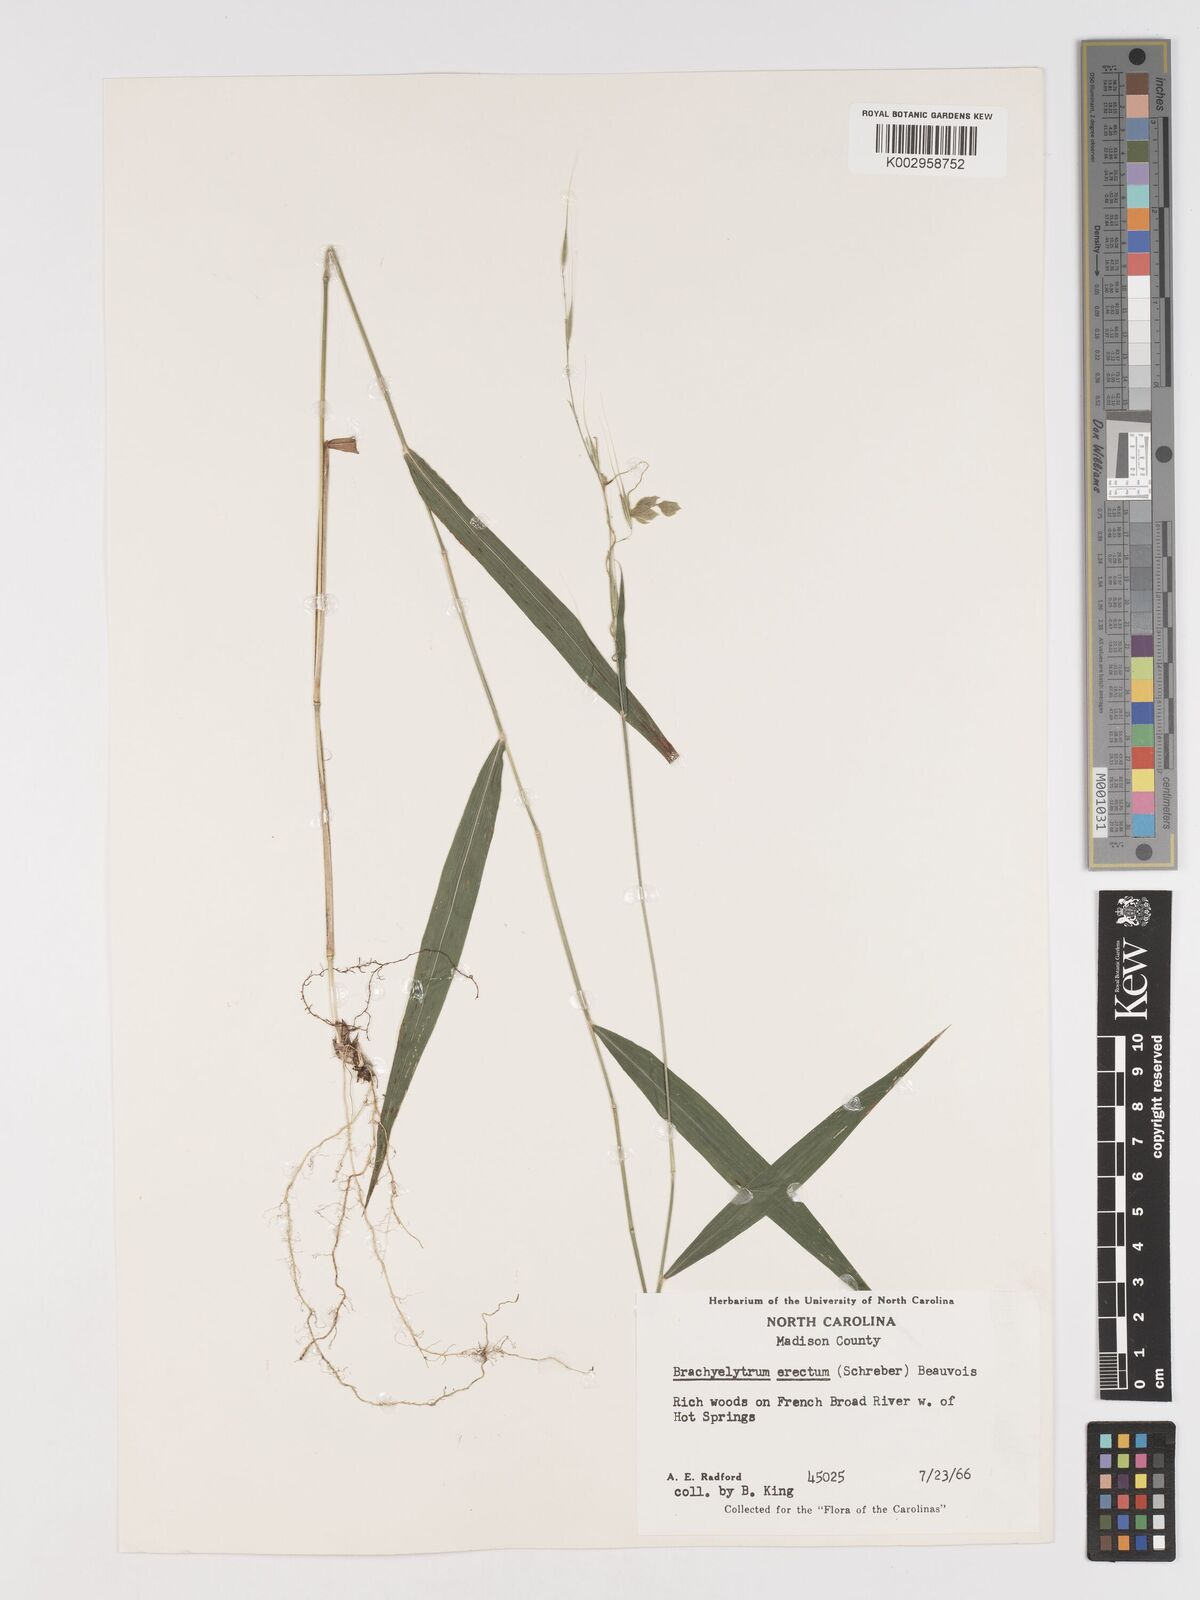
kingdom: Plantae
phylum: Tracheophyta
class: Liliopsida
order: Poales
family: Poaceae
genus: Brachyelytrum
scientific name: Brachyelytrum erectum
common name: Bearded shorthusk
